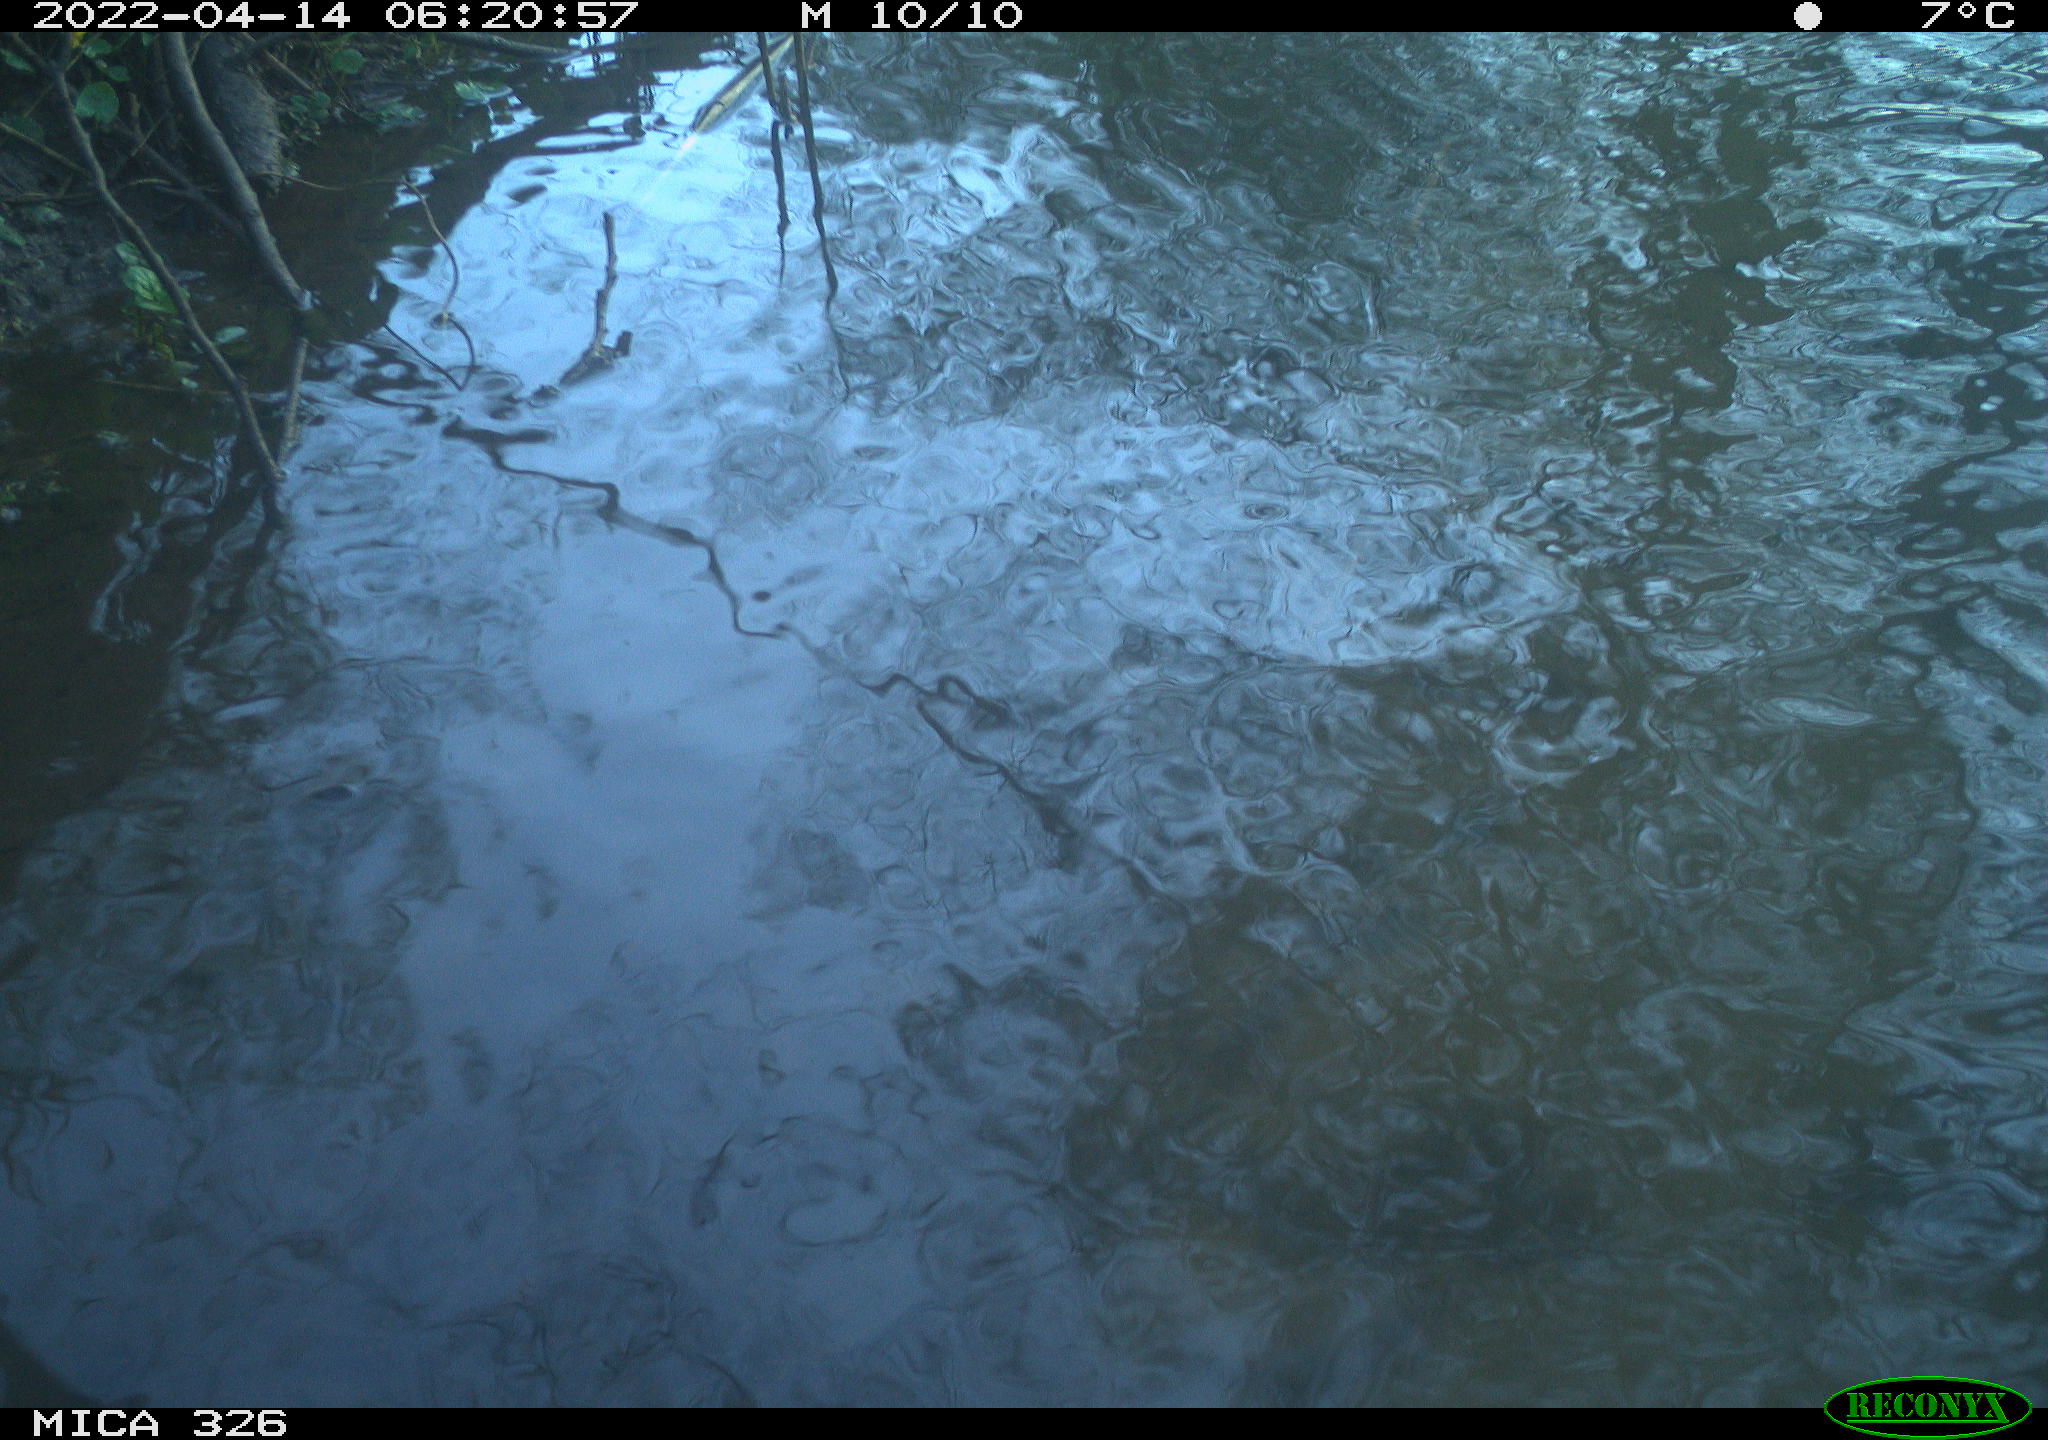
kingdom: Animalia
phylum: Chordata
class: Mammalia
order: Rodentia
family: Cricetidae
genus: Ondatra
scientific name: Ondatra zibethicus
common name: Muskrat
